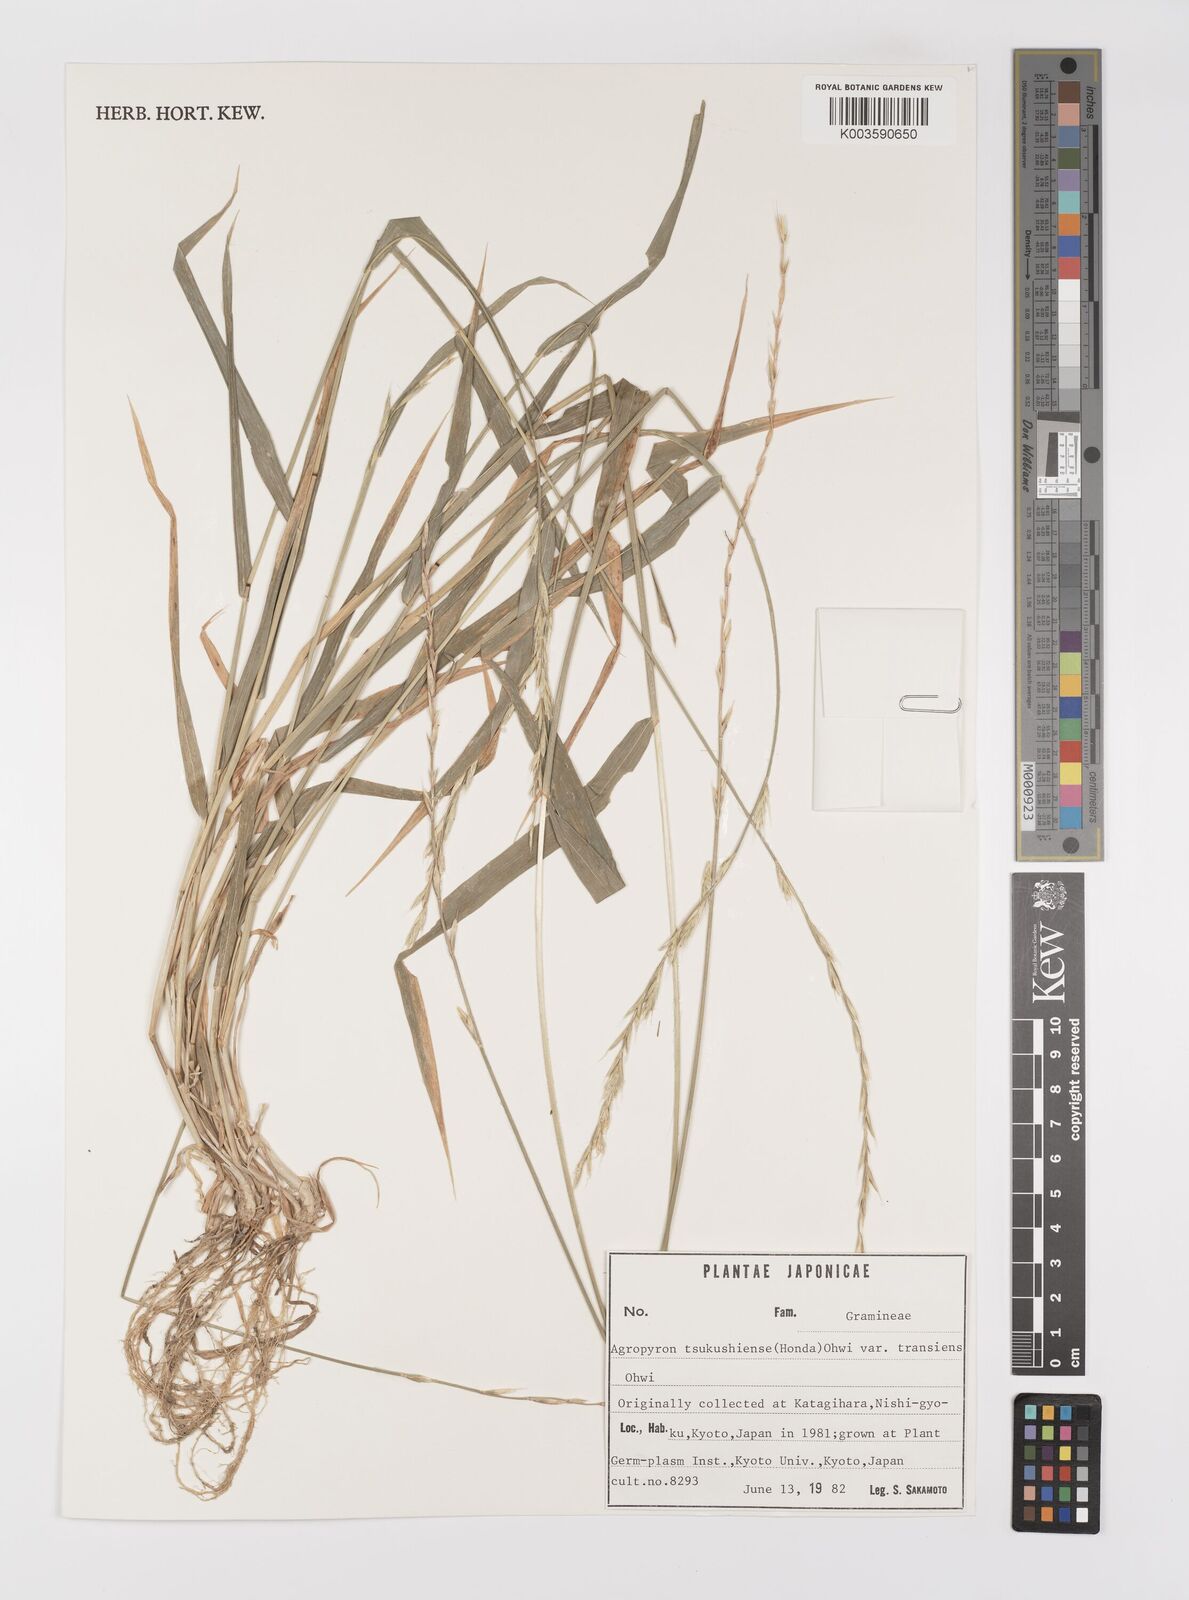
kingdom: Plantae
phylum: Tracheophyta
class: Liliopsida
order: Poales
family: Poaceae
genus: Elymus
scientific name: Elymus tsukushiensis
